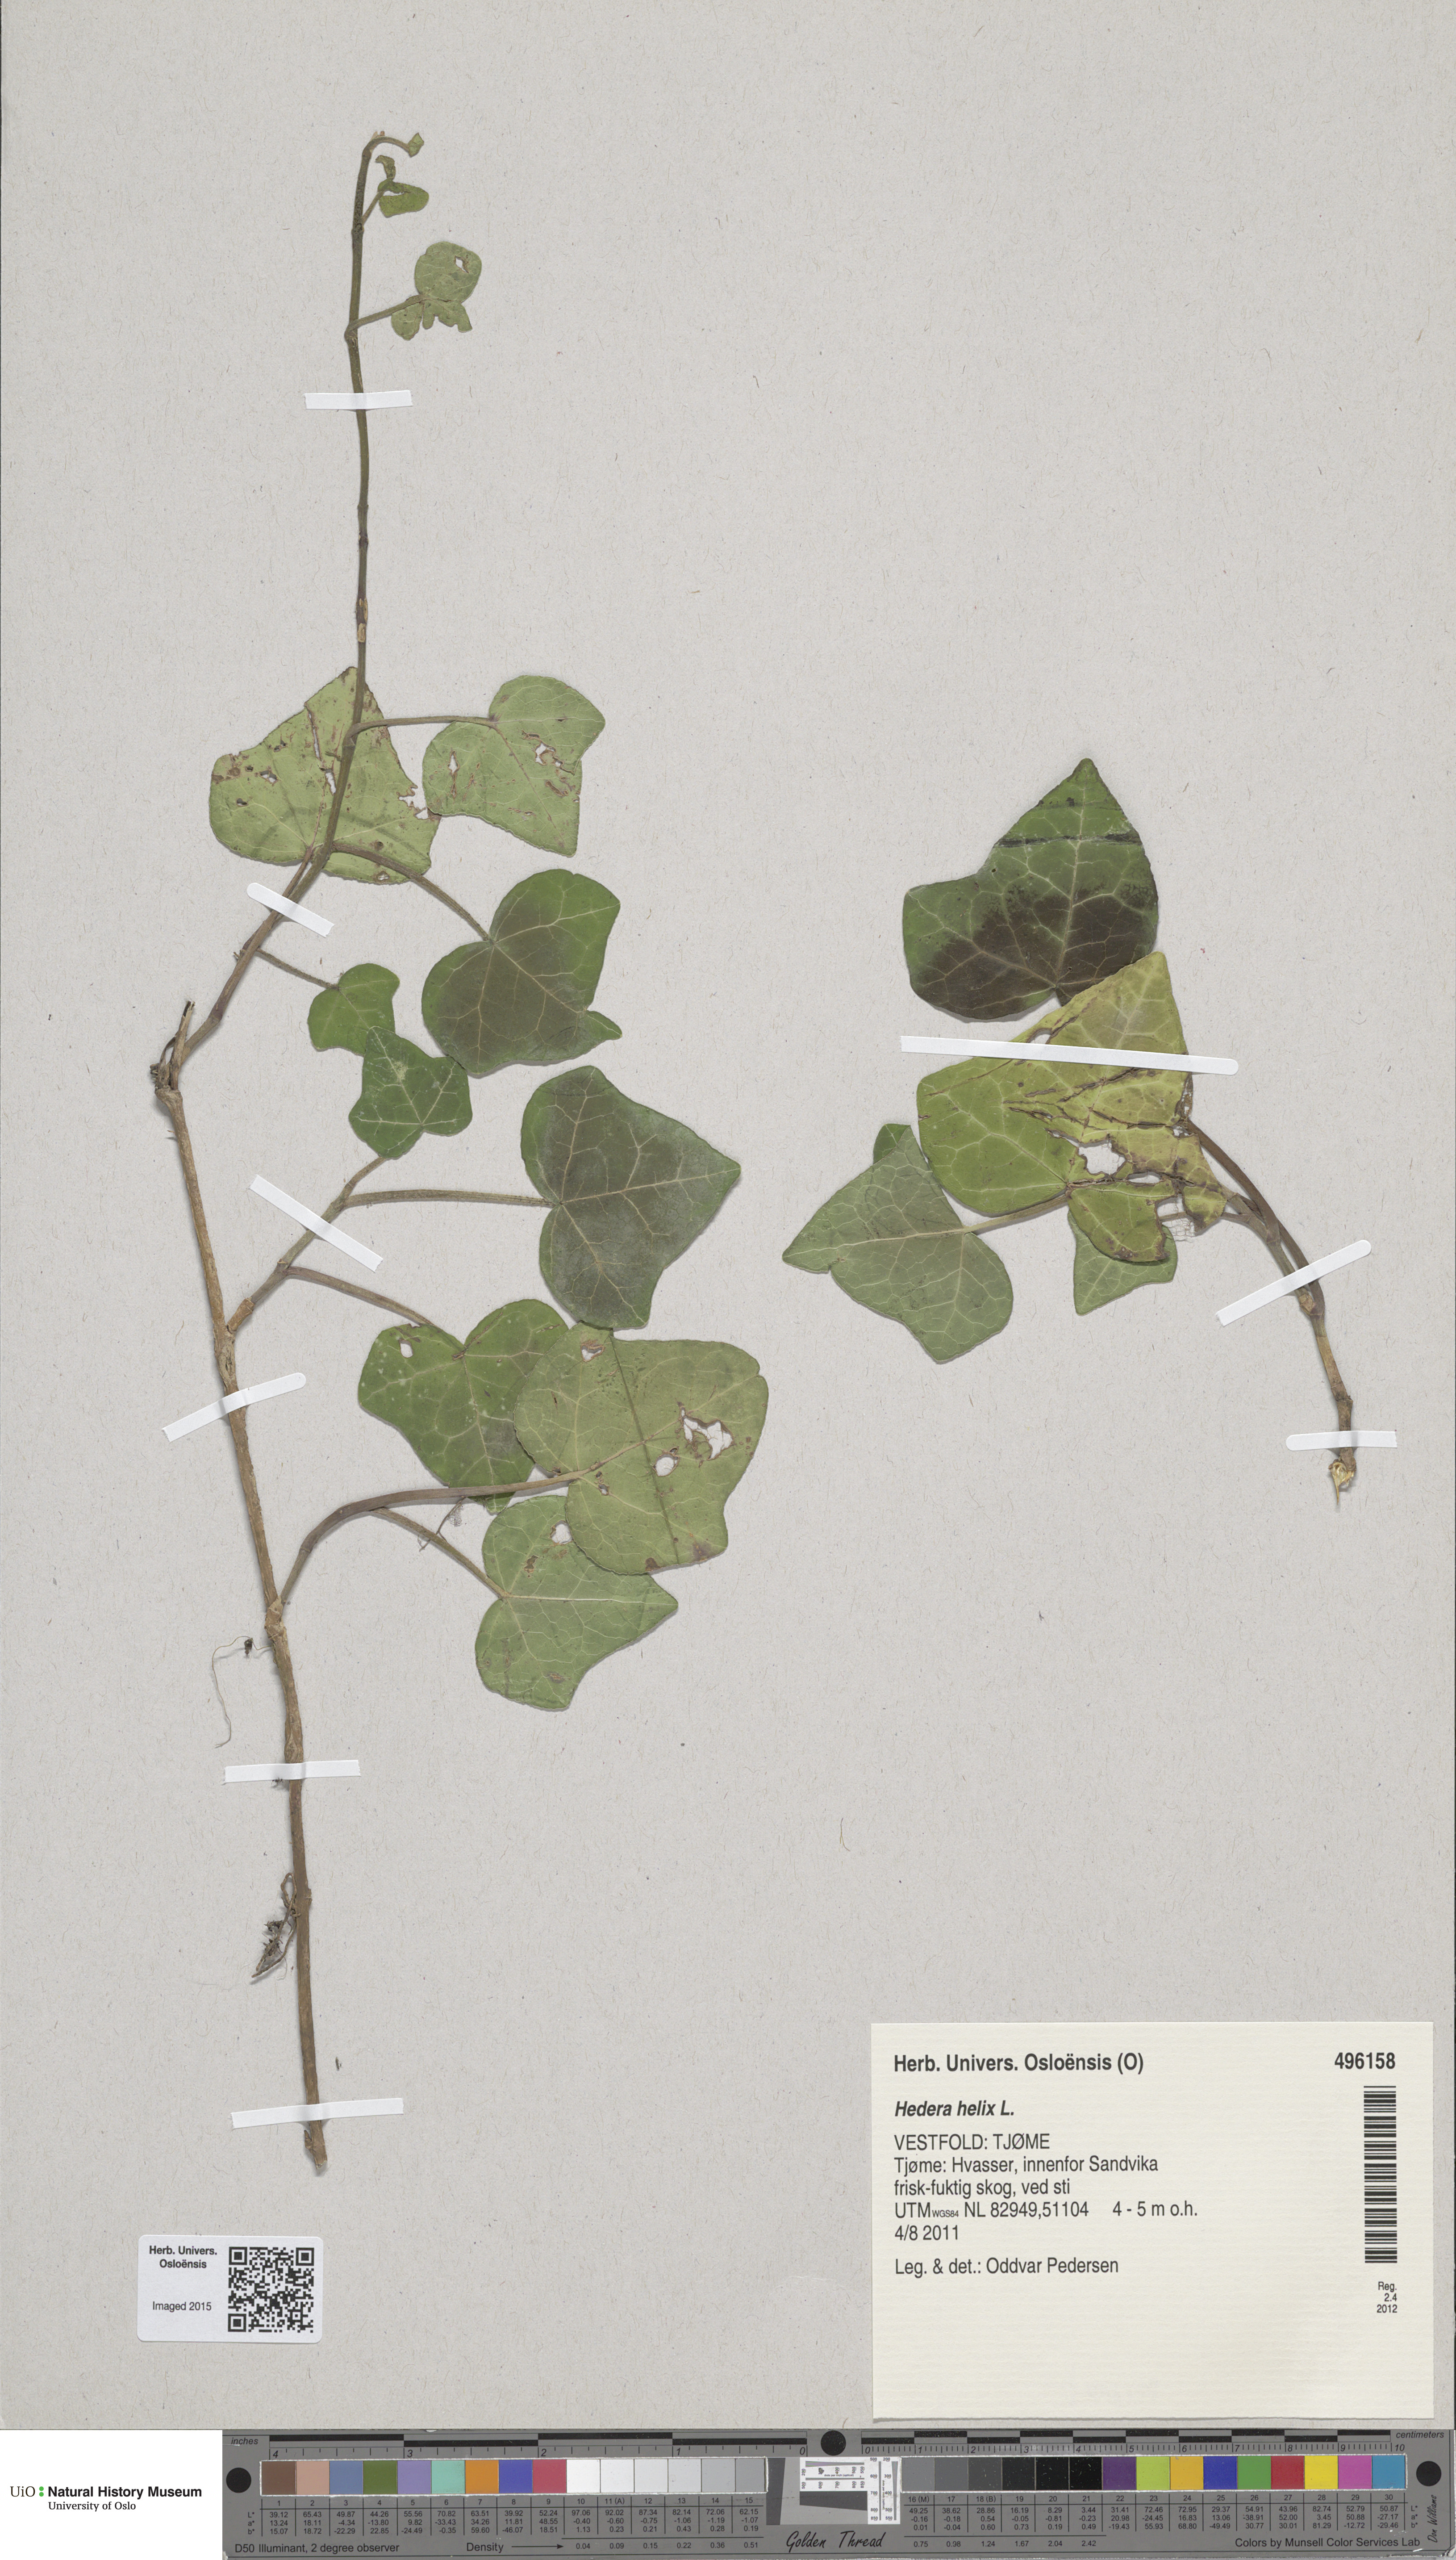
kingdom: Plantae
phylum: Tracheophyta
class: Magnoliopsida
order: Apiales
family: Araliaceae
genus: Hedera
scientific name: Hedera helix
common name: Ivy
